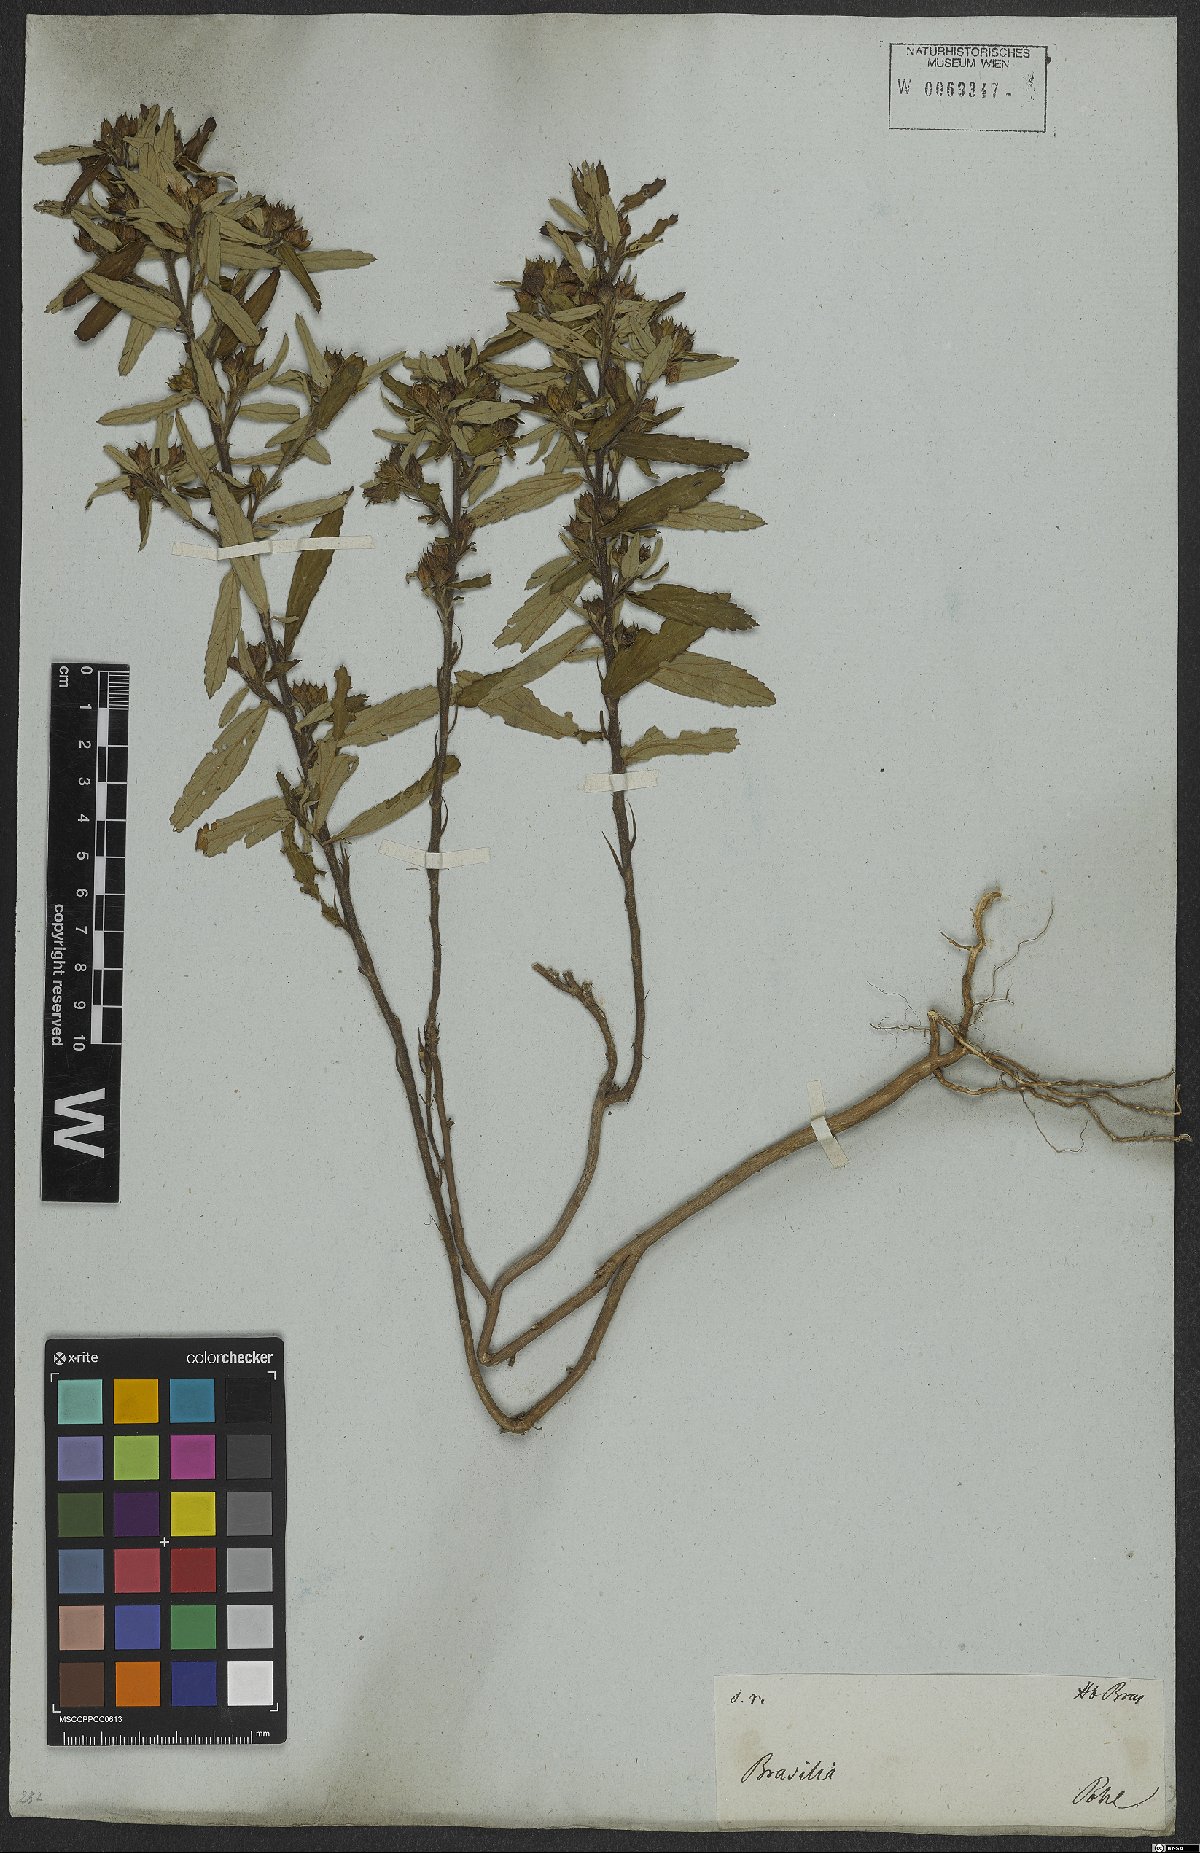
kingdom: Plantae
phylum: Tracheophyta
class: Magnoliopsida
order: Malvales
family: Malvaceae
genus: Sida
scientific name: Sida spinosa
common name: Prickly fanpetals
